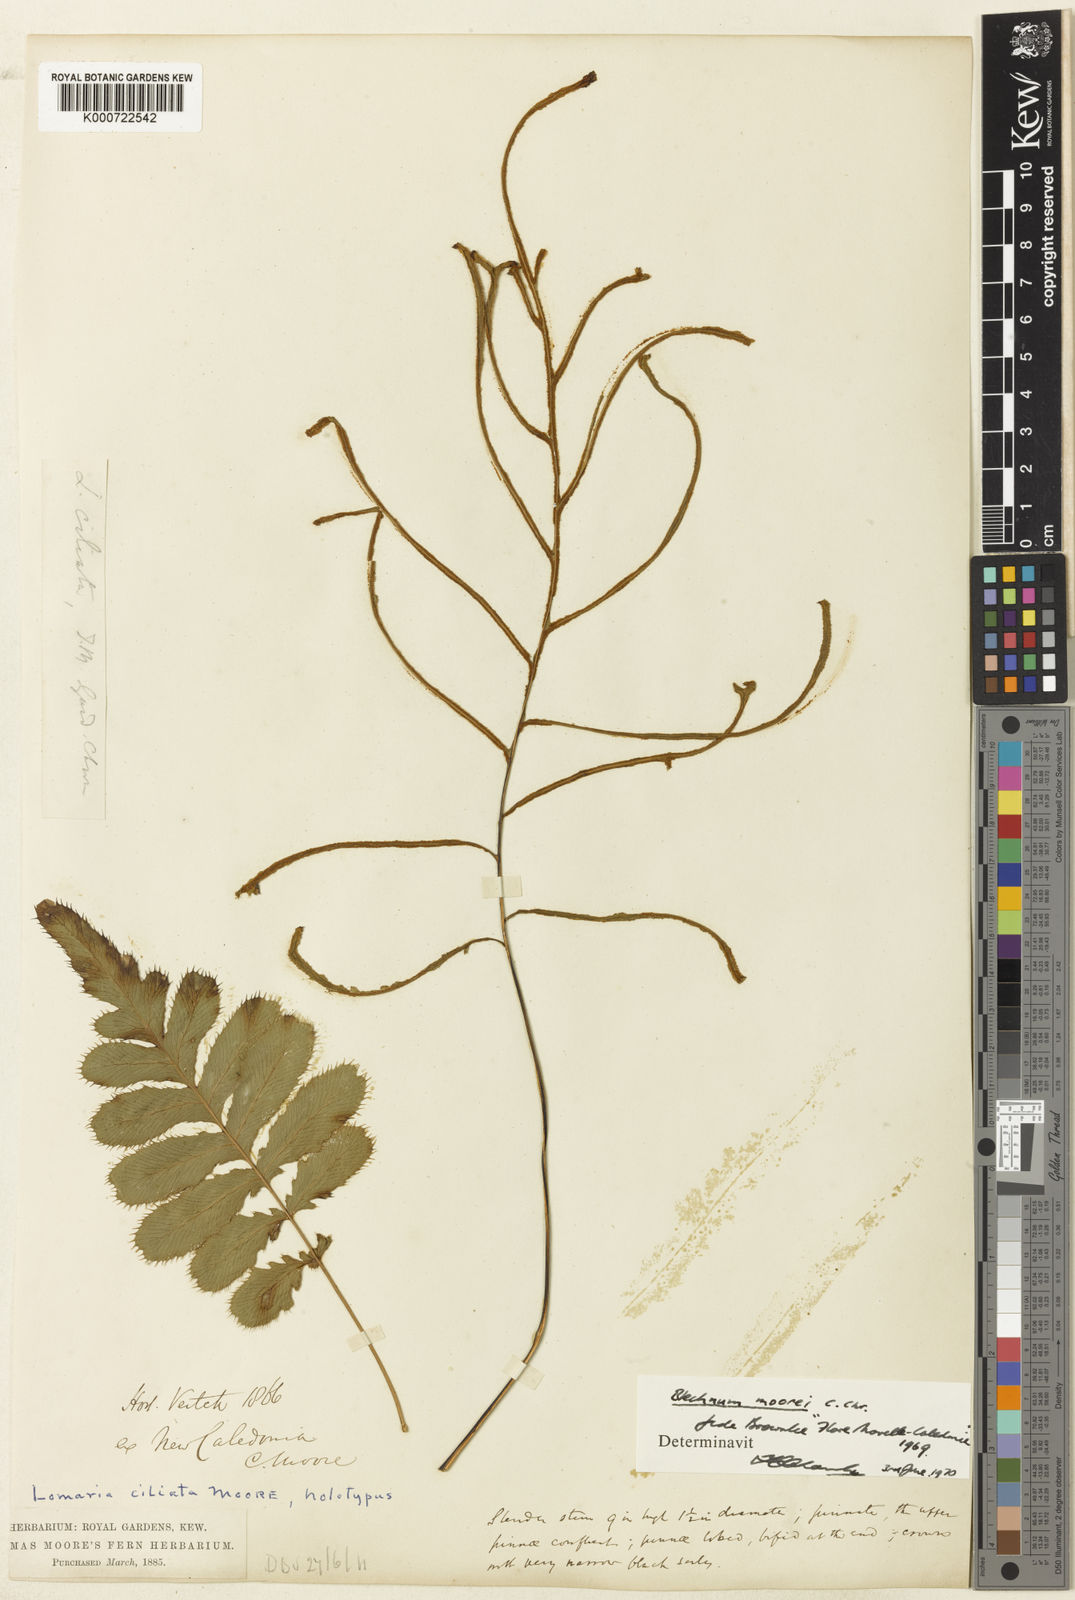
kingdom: Plantae
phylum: Tracheophyta
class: Polypodiopsida
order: Polypodiales
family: Blechnaceae
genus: Blechnum
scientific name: Blechnum irregulare
